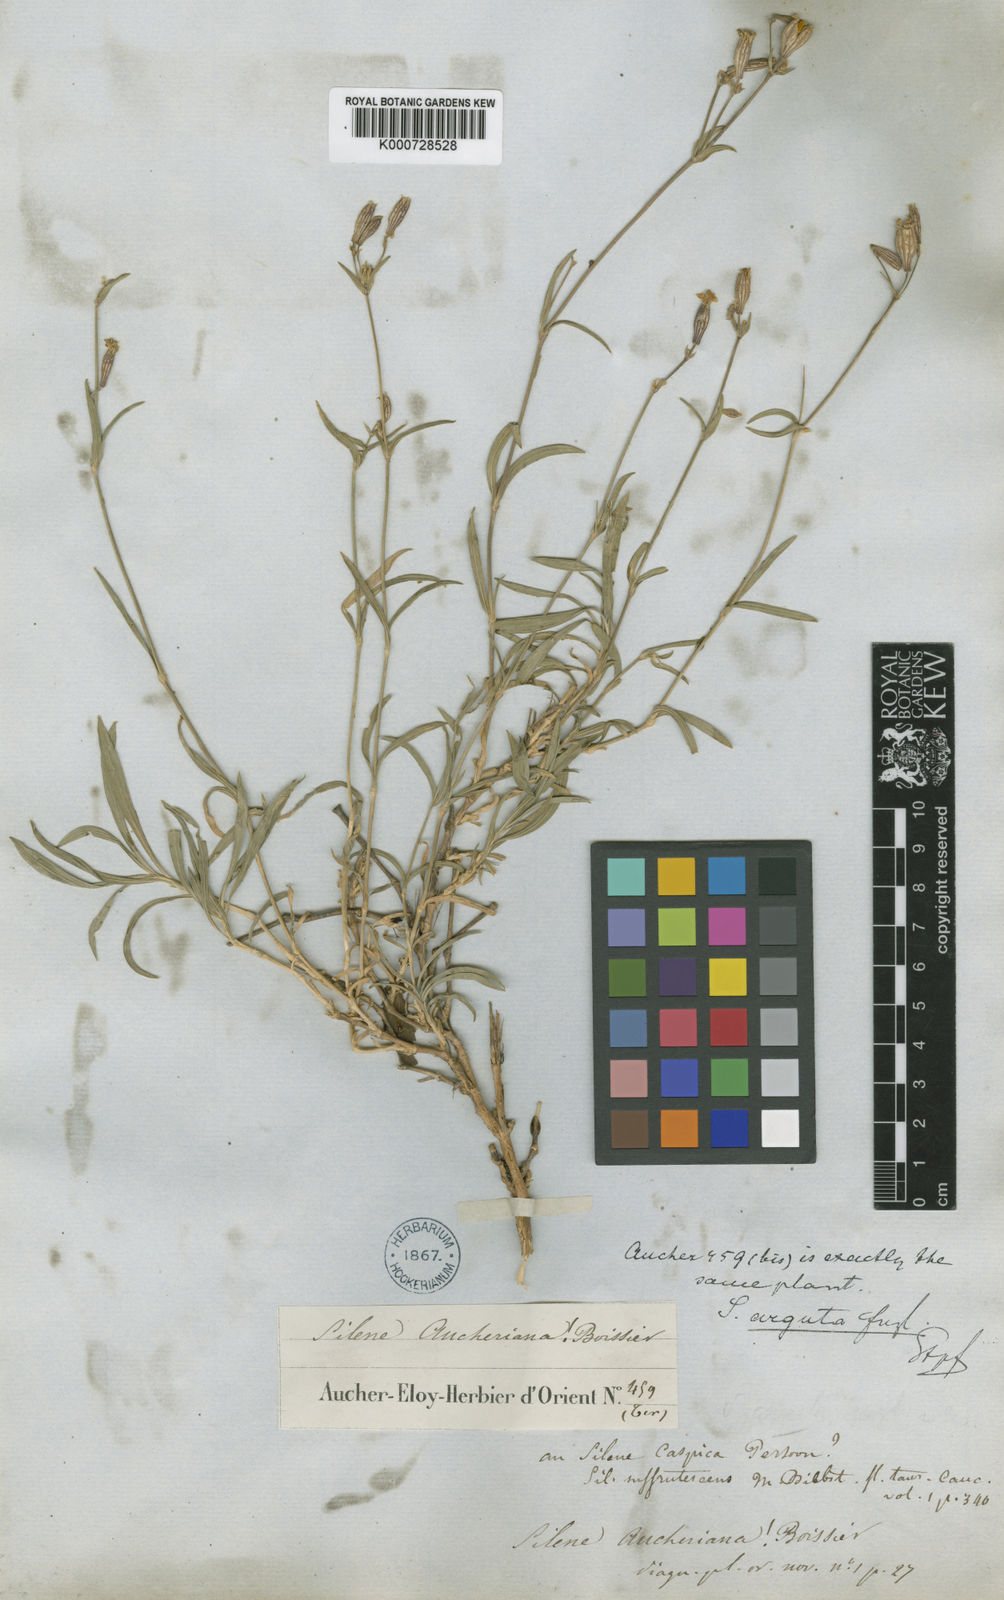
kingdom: Plantae
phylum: Tracheophyta
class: Magnoliopsida
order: Caryophyllales
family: Caryophyllaceae
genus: Silene
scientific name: Silene arguta
